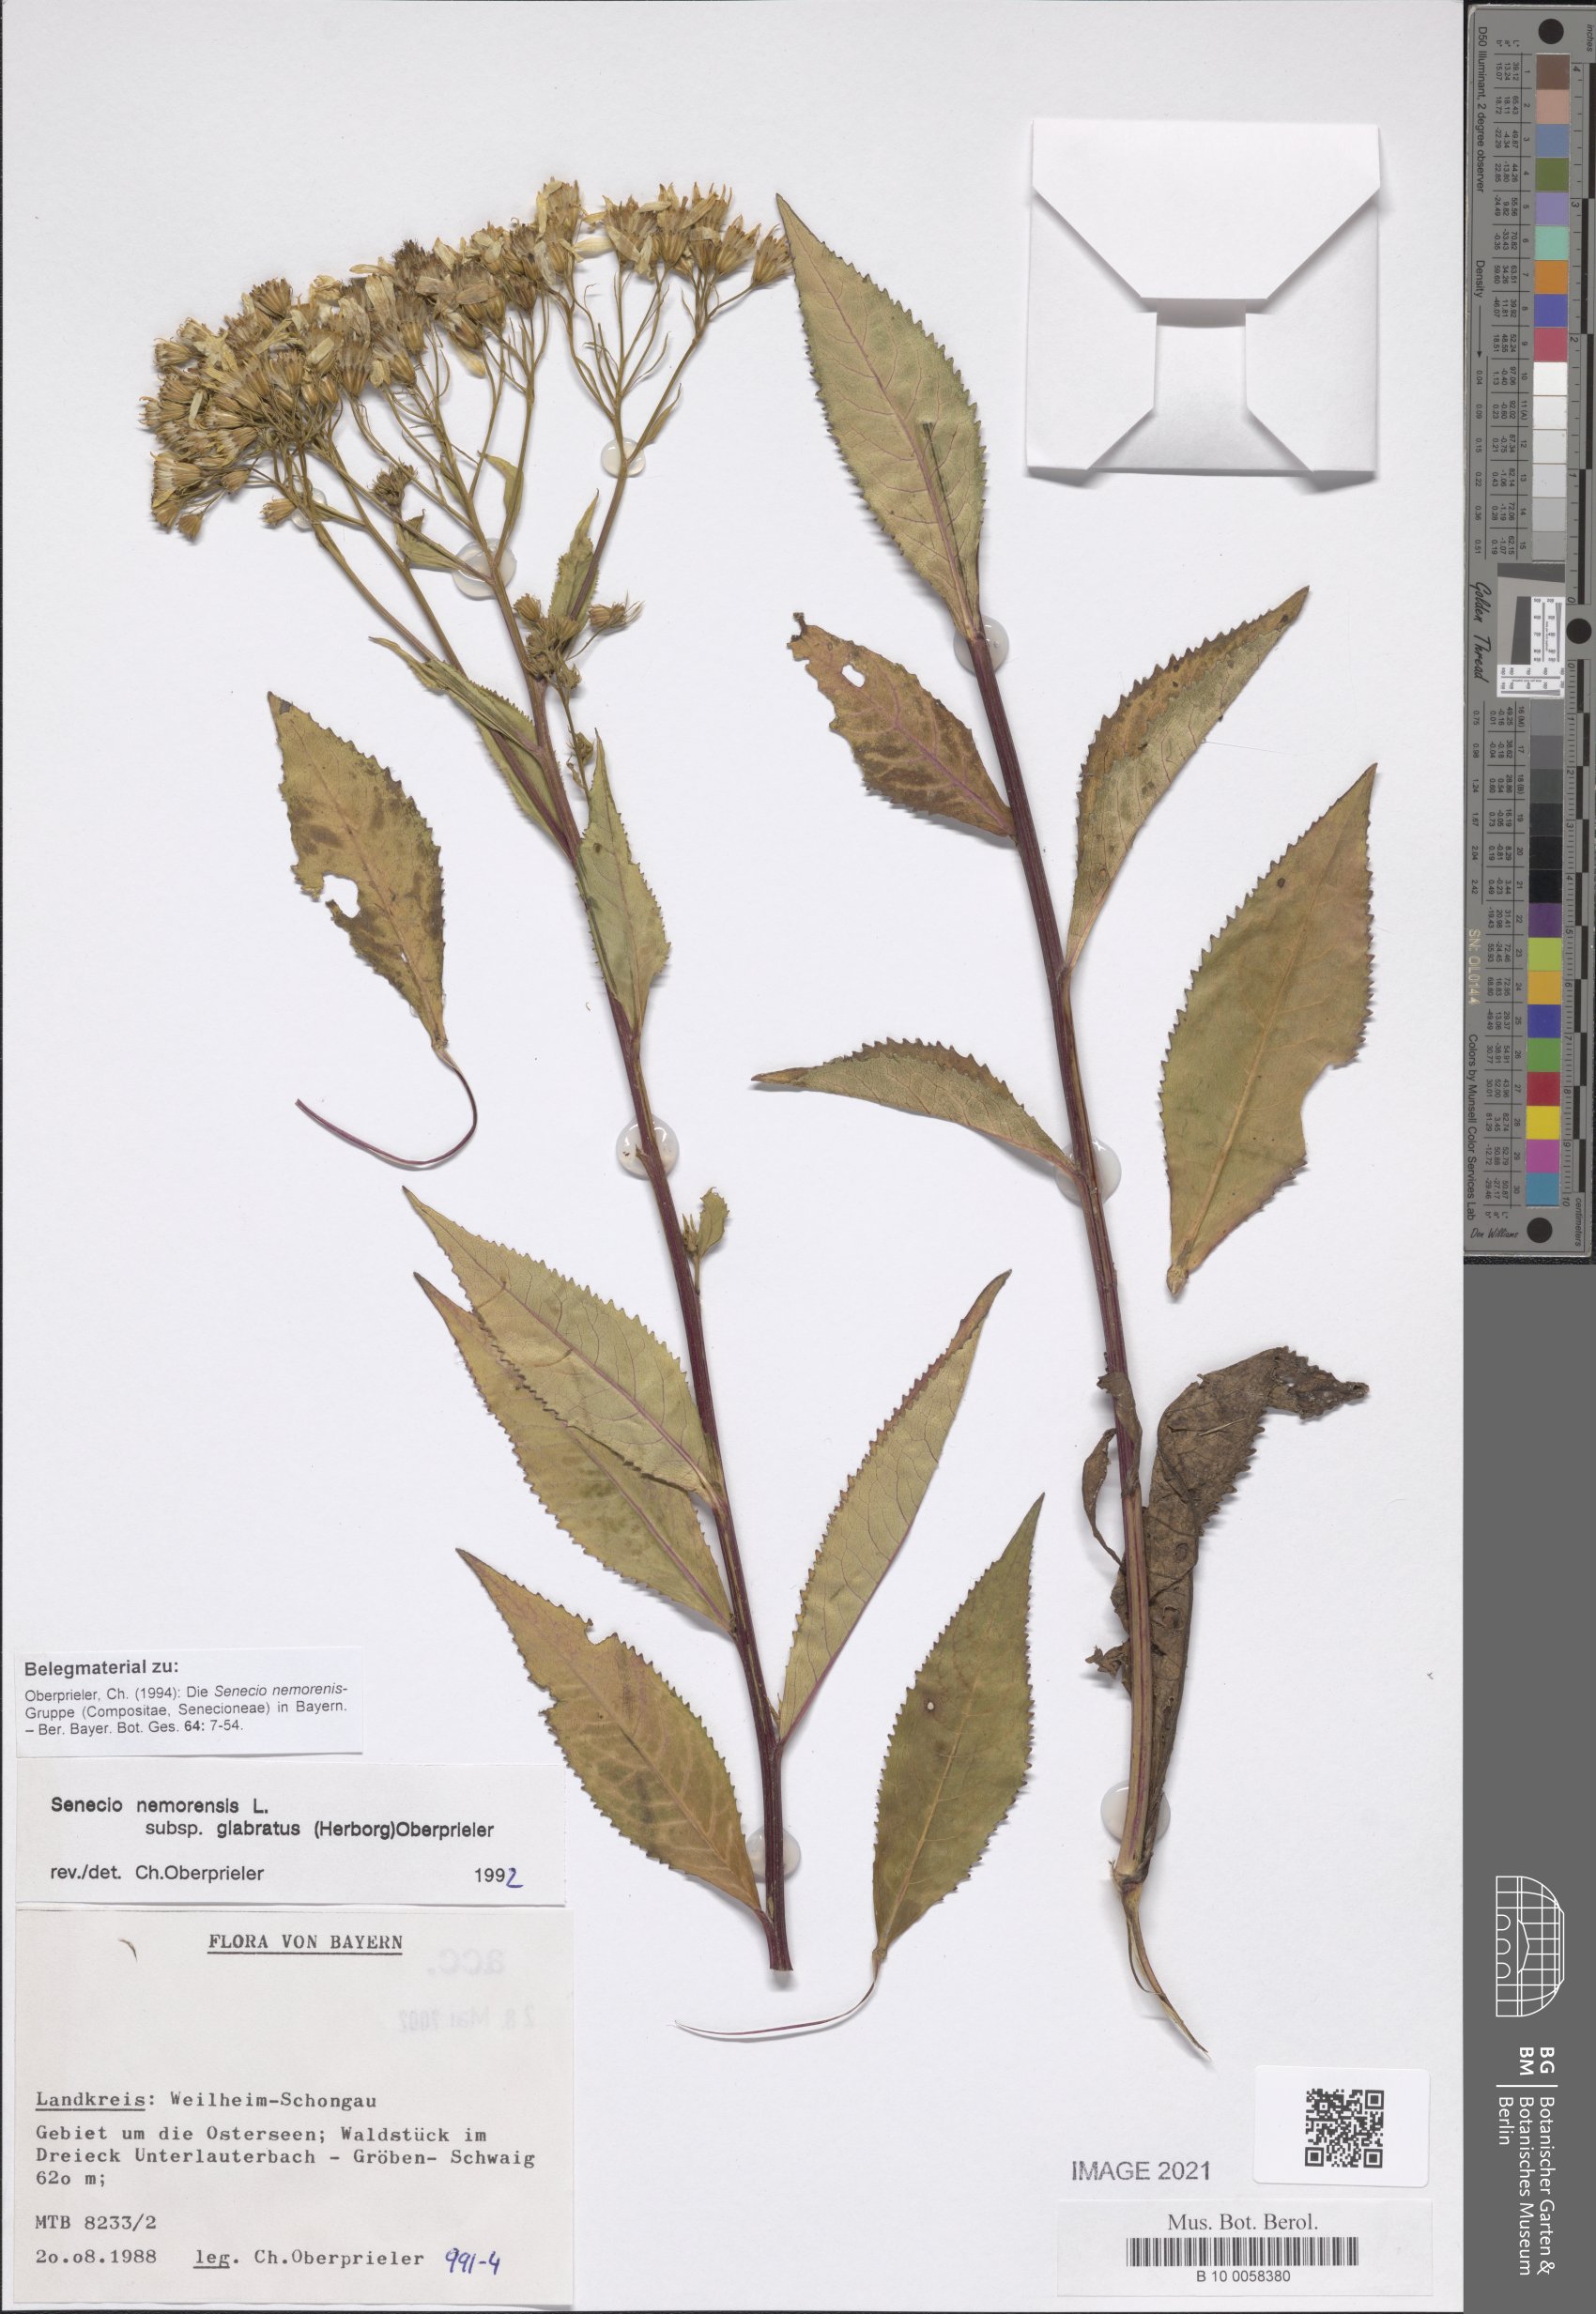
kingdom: Plantae
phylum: Tracheophyta
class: Magnoliopsida
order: Asterales
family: Asteraceae
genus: Senecio
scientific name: Senecio germanicus
